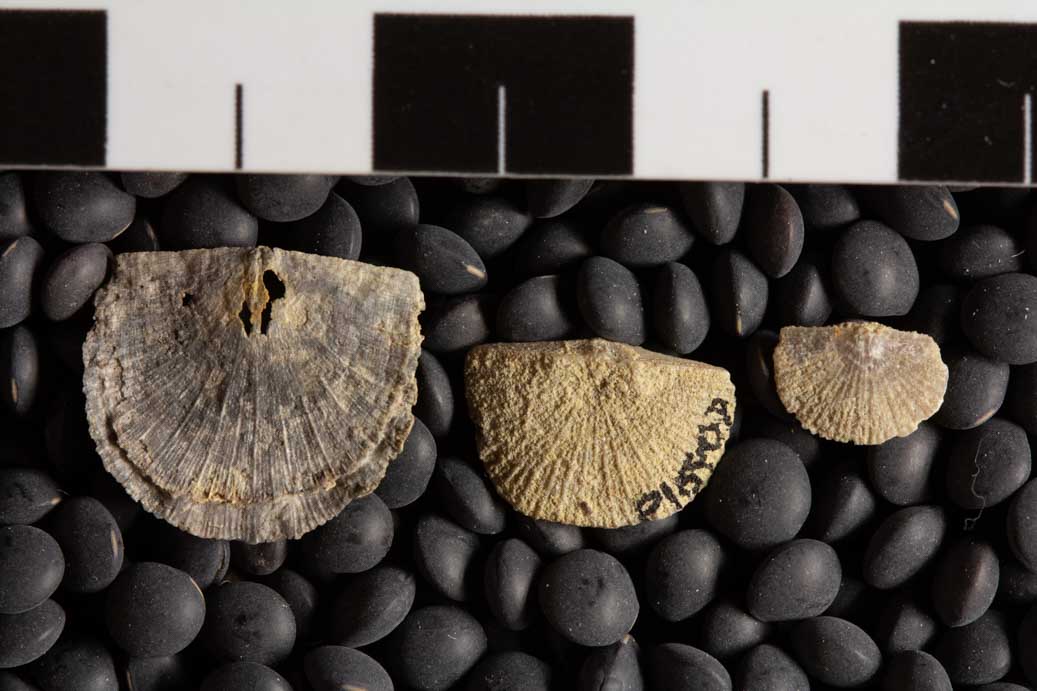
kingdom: Animalia
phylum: Brachiopoda
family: Strophomenidae
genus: Strophomena
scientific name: Strophomena
